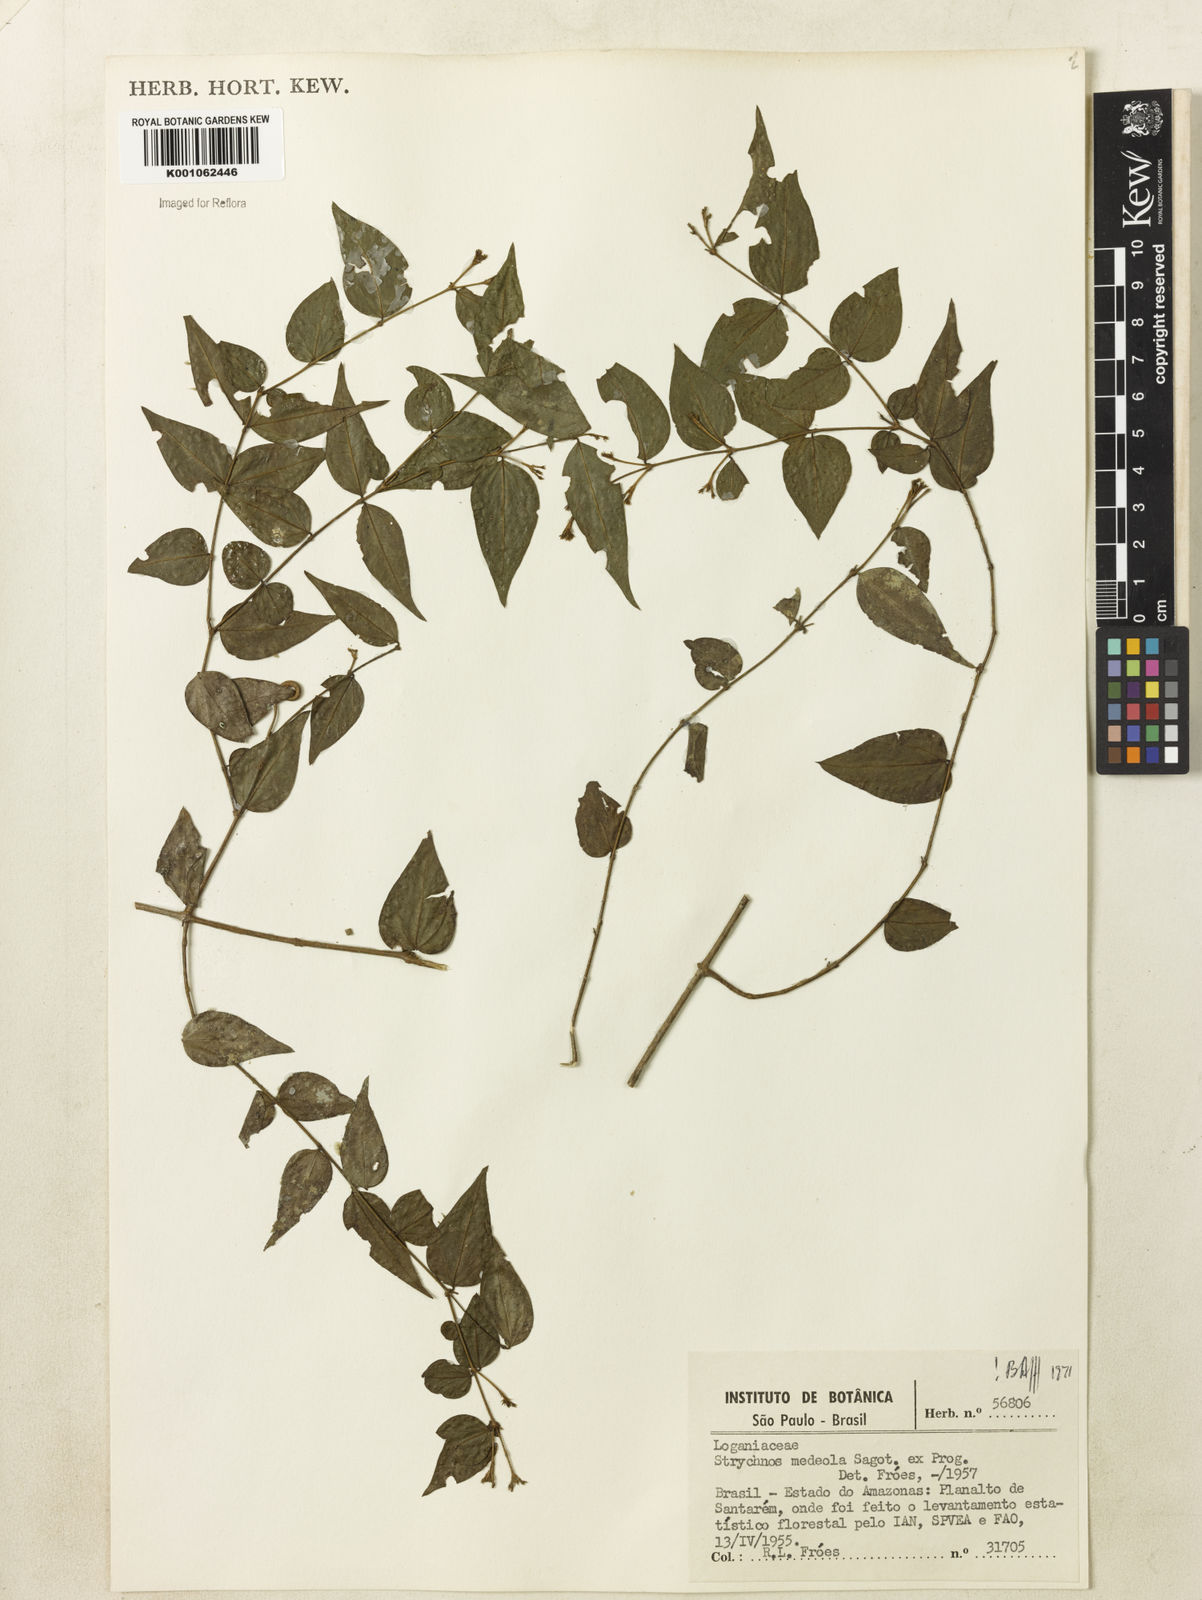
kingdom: Plantae
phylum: Tracheophyta
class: Magnoliopsida
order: Gentianales
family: Loganiaceae
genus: Strychnos
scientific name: Strychnos medeola
